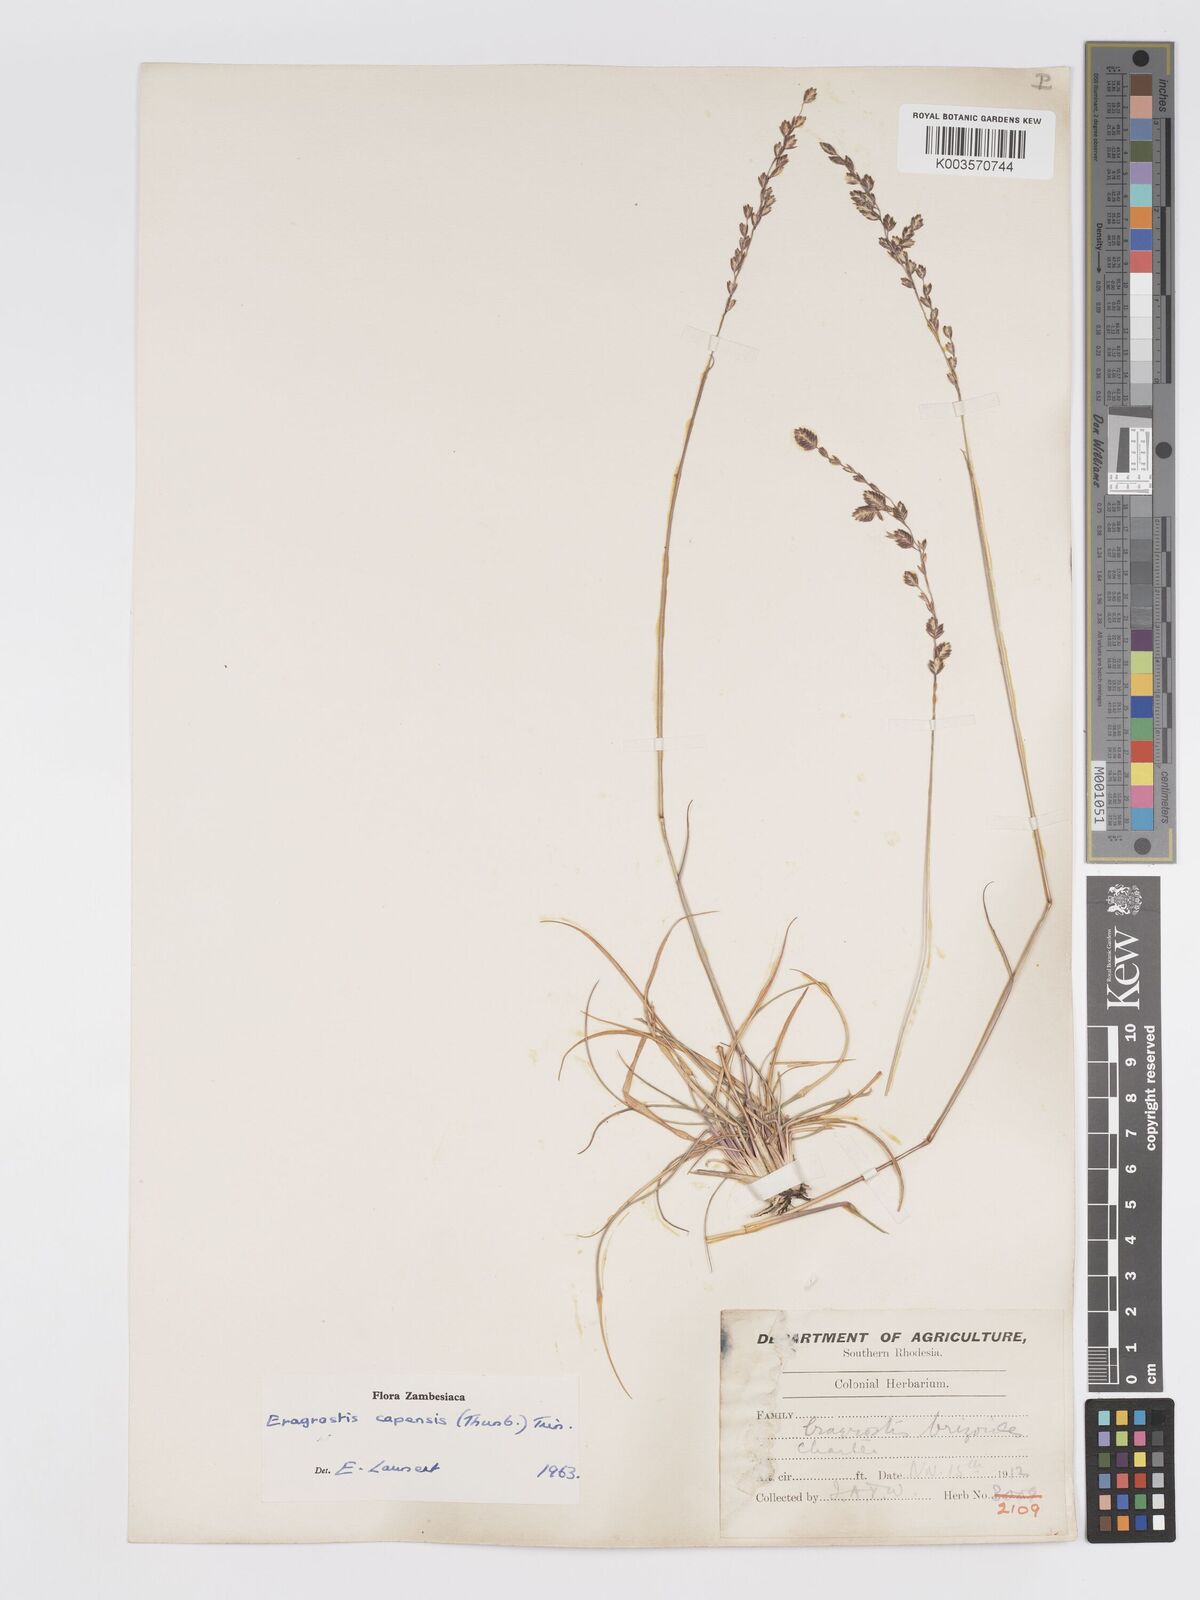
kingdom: Plantae
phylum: Tracheophyta
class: Liliopsida
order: Poales
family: Poaceae
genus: Eragrostis
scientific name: Eragrostis capensis
